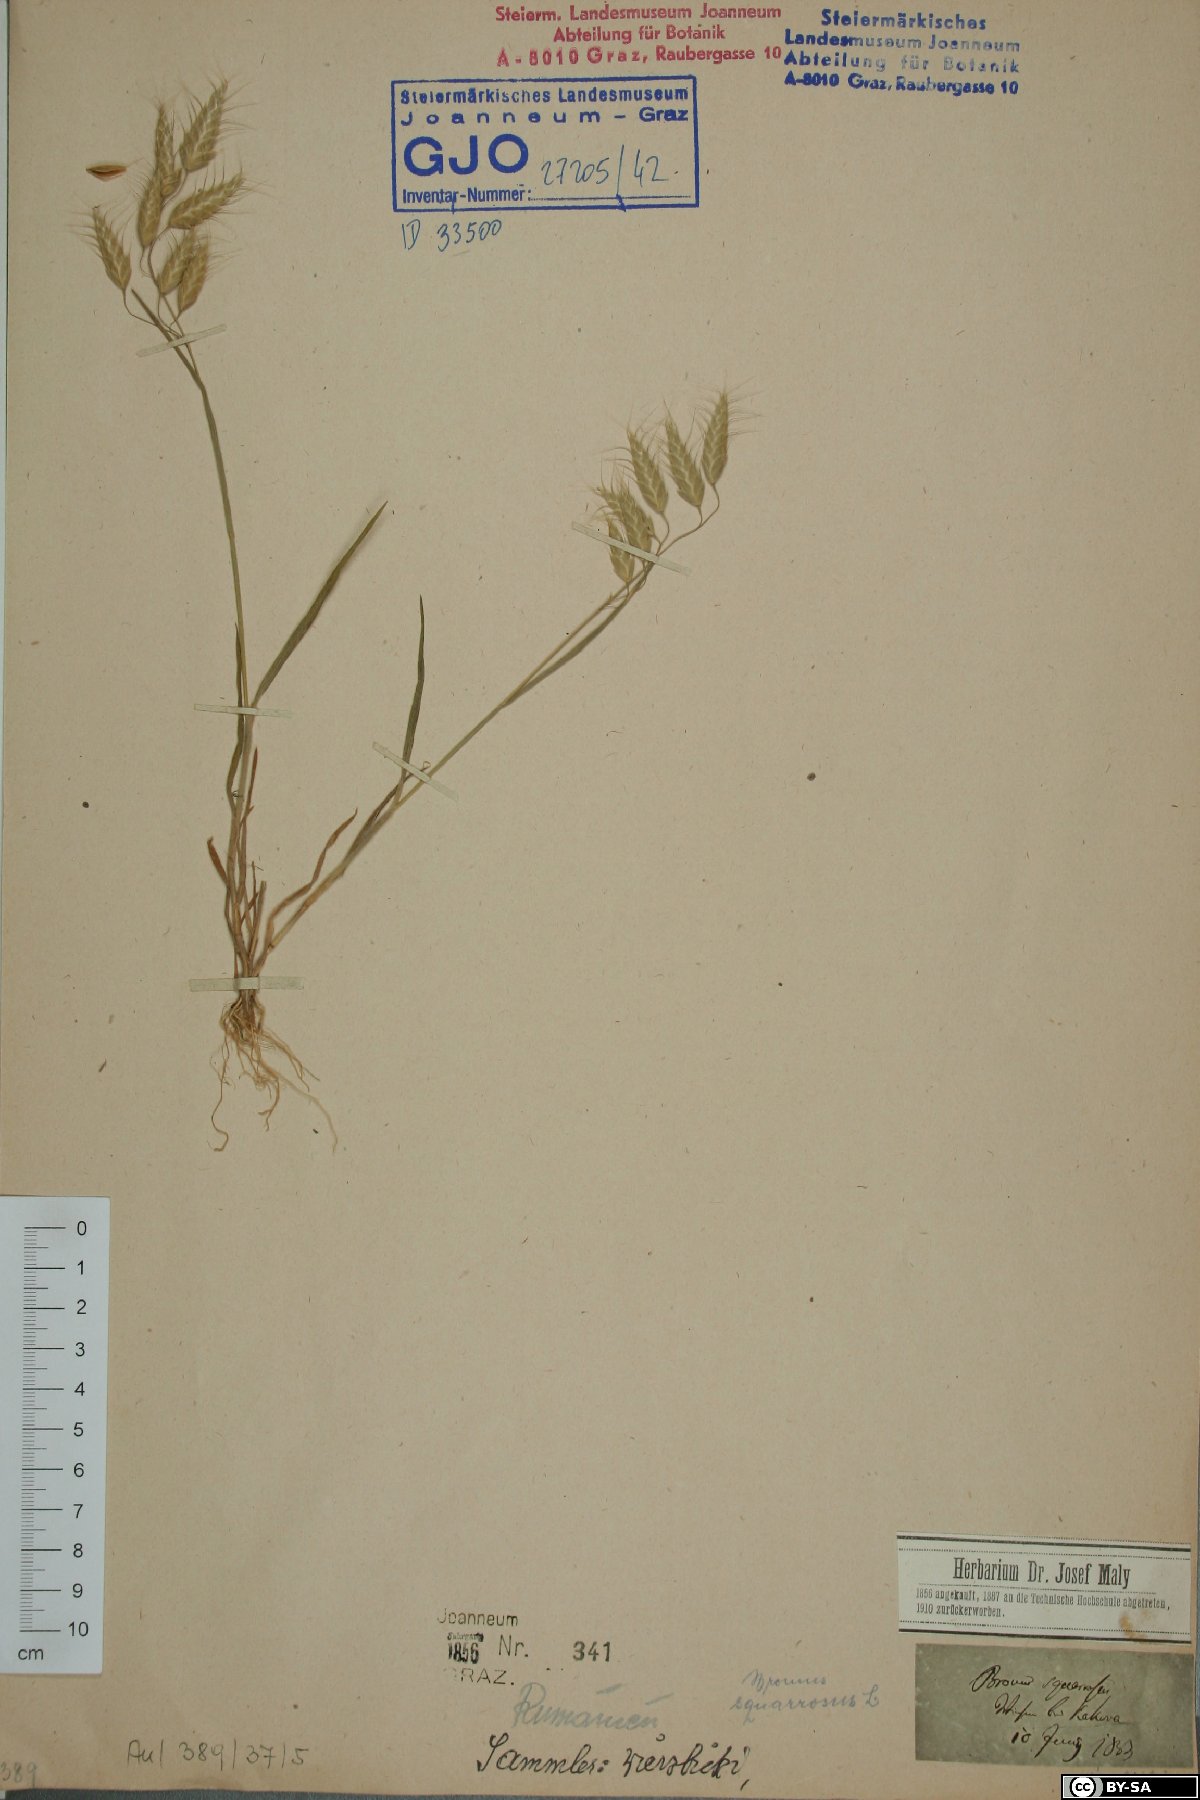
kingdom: Plantae
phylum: Tracheophyta
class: Liliopsida
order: Poales
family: Poaceae
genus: Bromus
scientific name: Bromus squarrosus
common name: Corn brome
